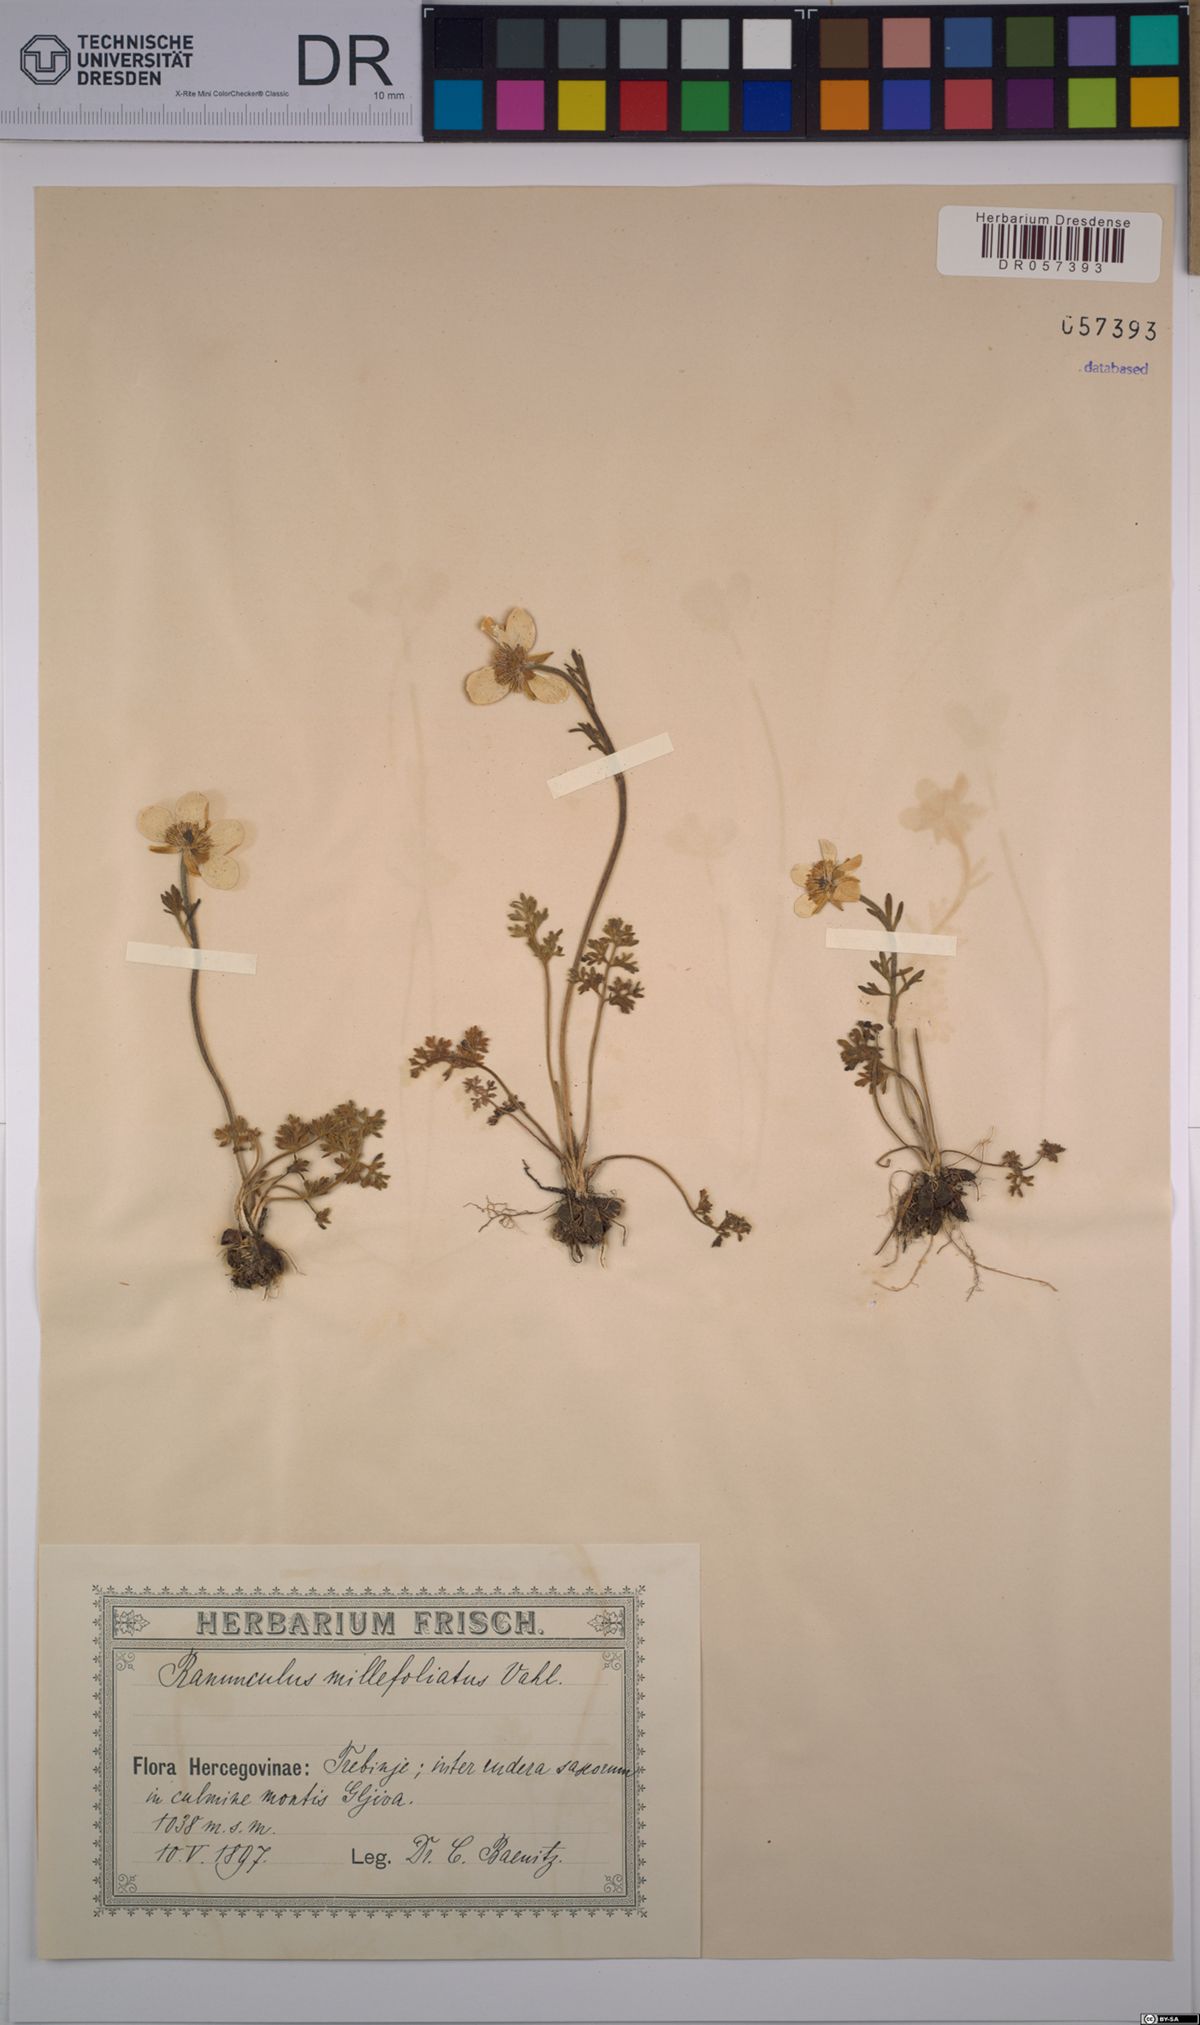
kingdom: Plantae
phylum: Tracheophyta
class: Magnoliopsida
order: Ranunculales
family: Ranunculaceae
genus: Ranunculus
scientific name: Ranunculus millefoliatus
